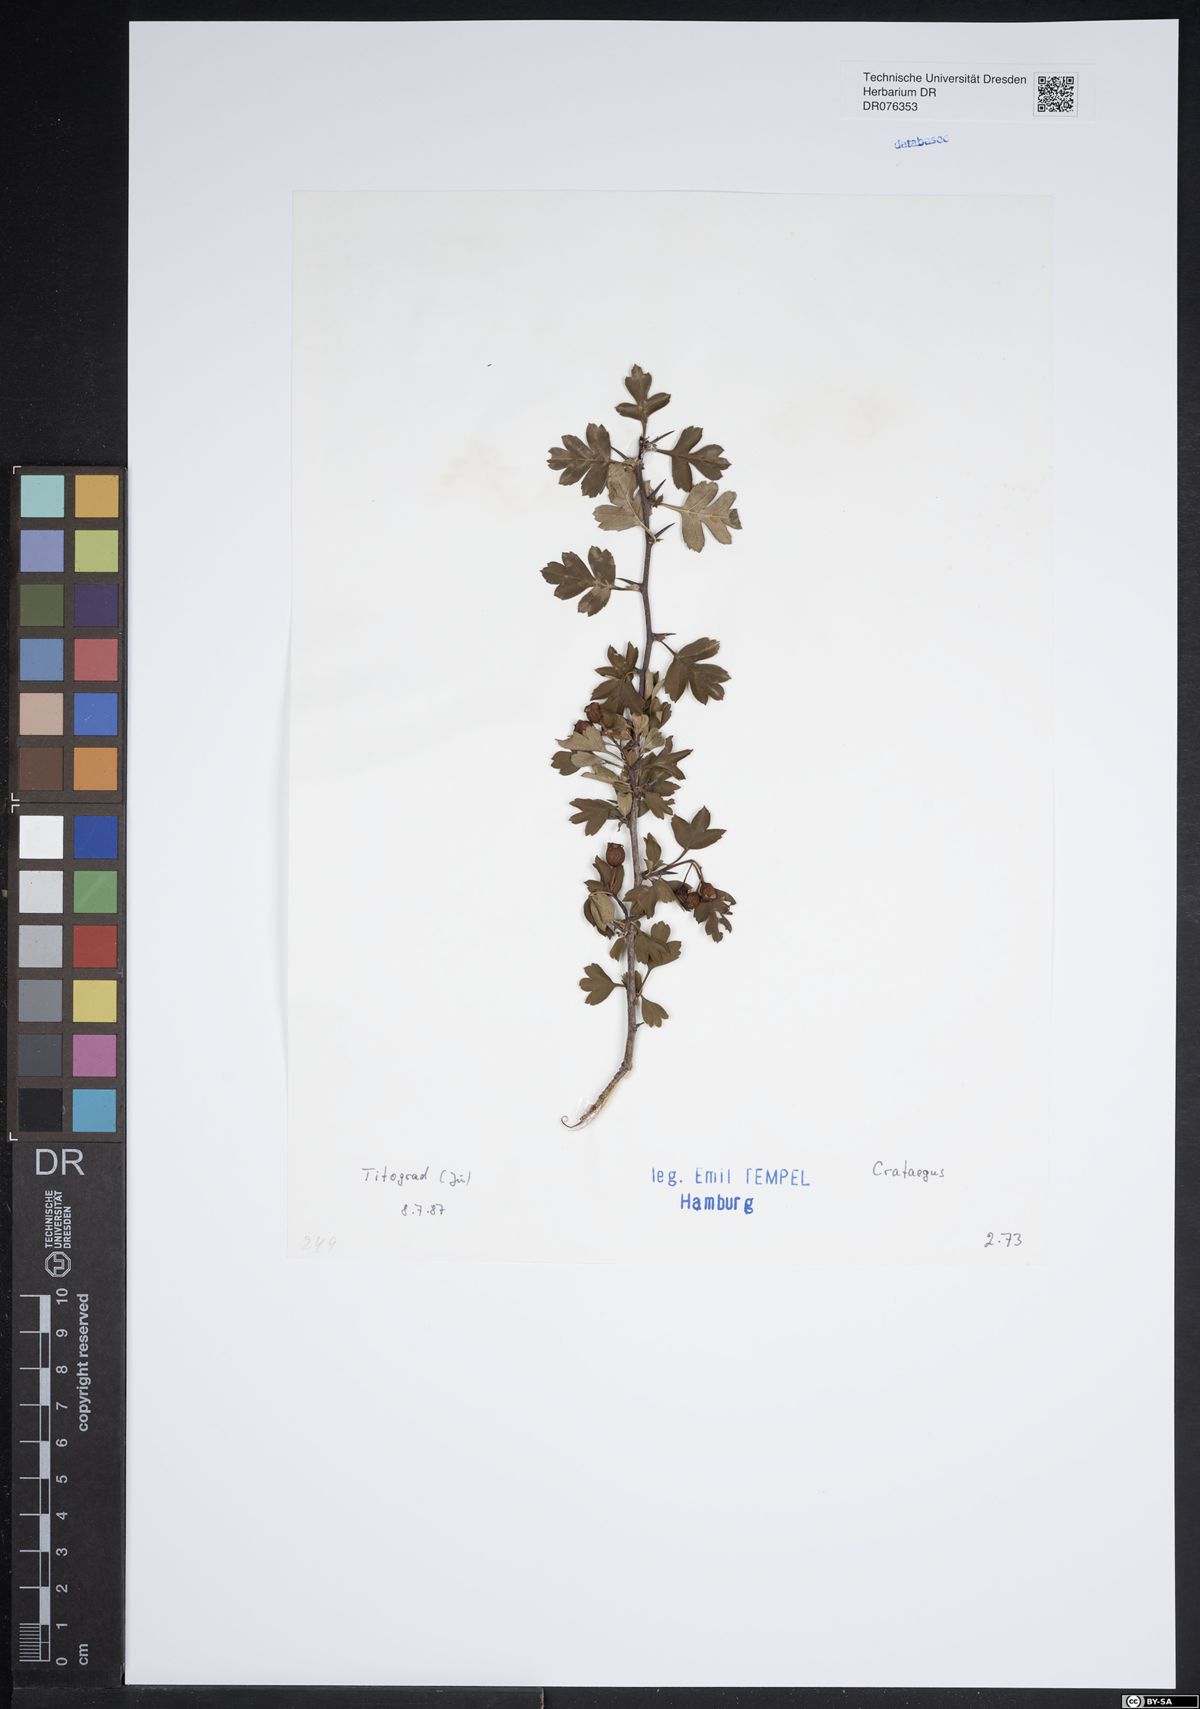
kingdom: Plantae
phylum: Tracheophyta
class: Magnoliopsida
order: Rosales
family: Rosaceae
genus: Crataegus
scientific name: Crataegus
